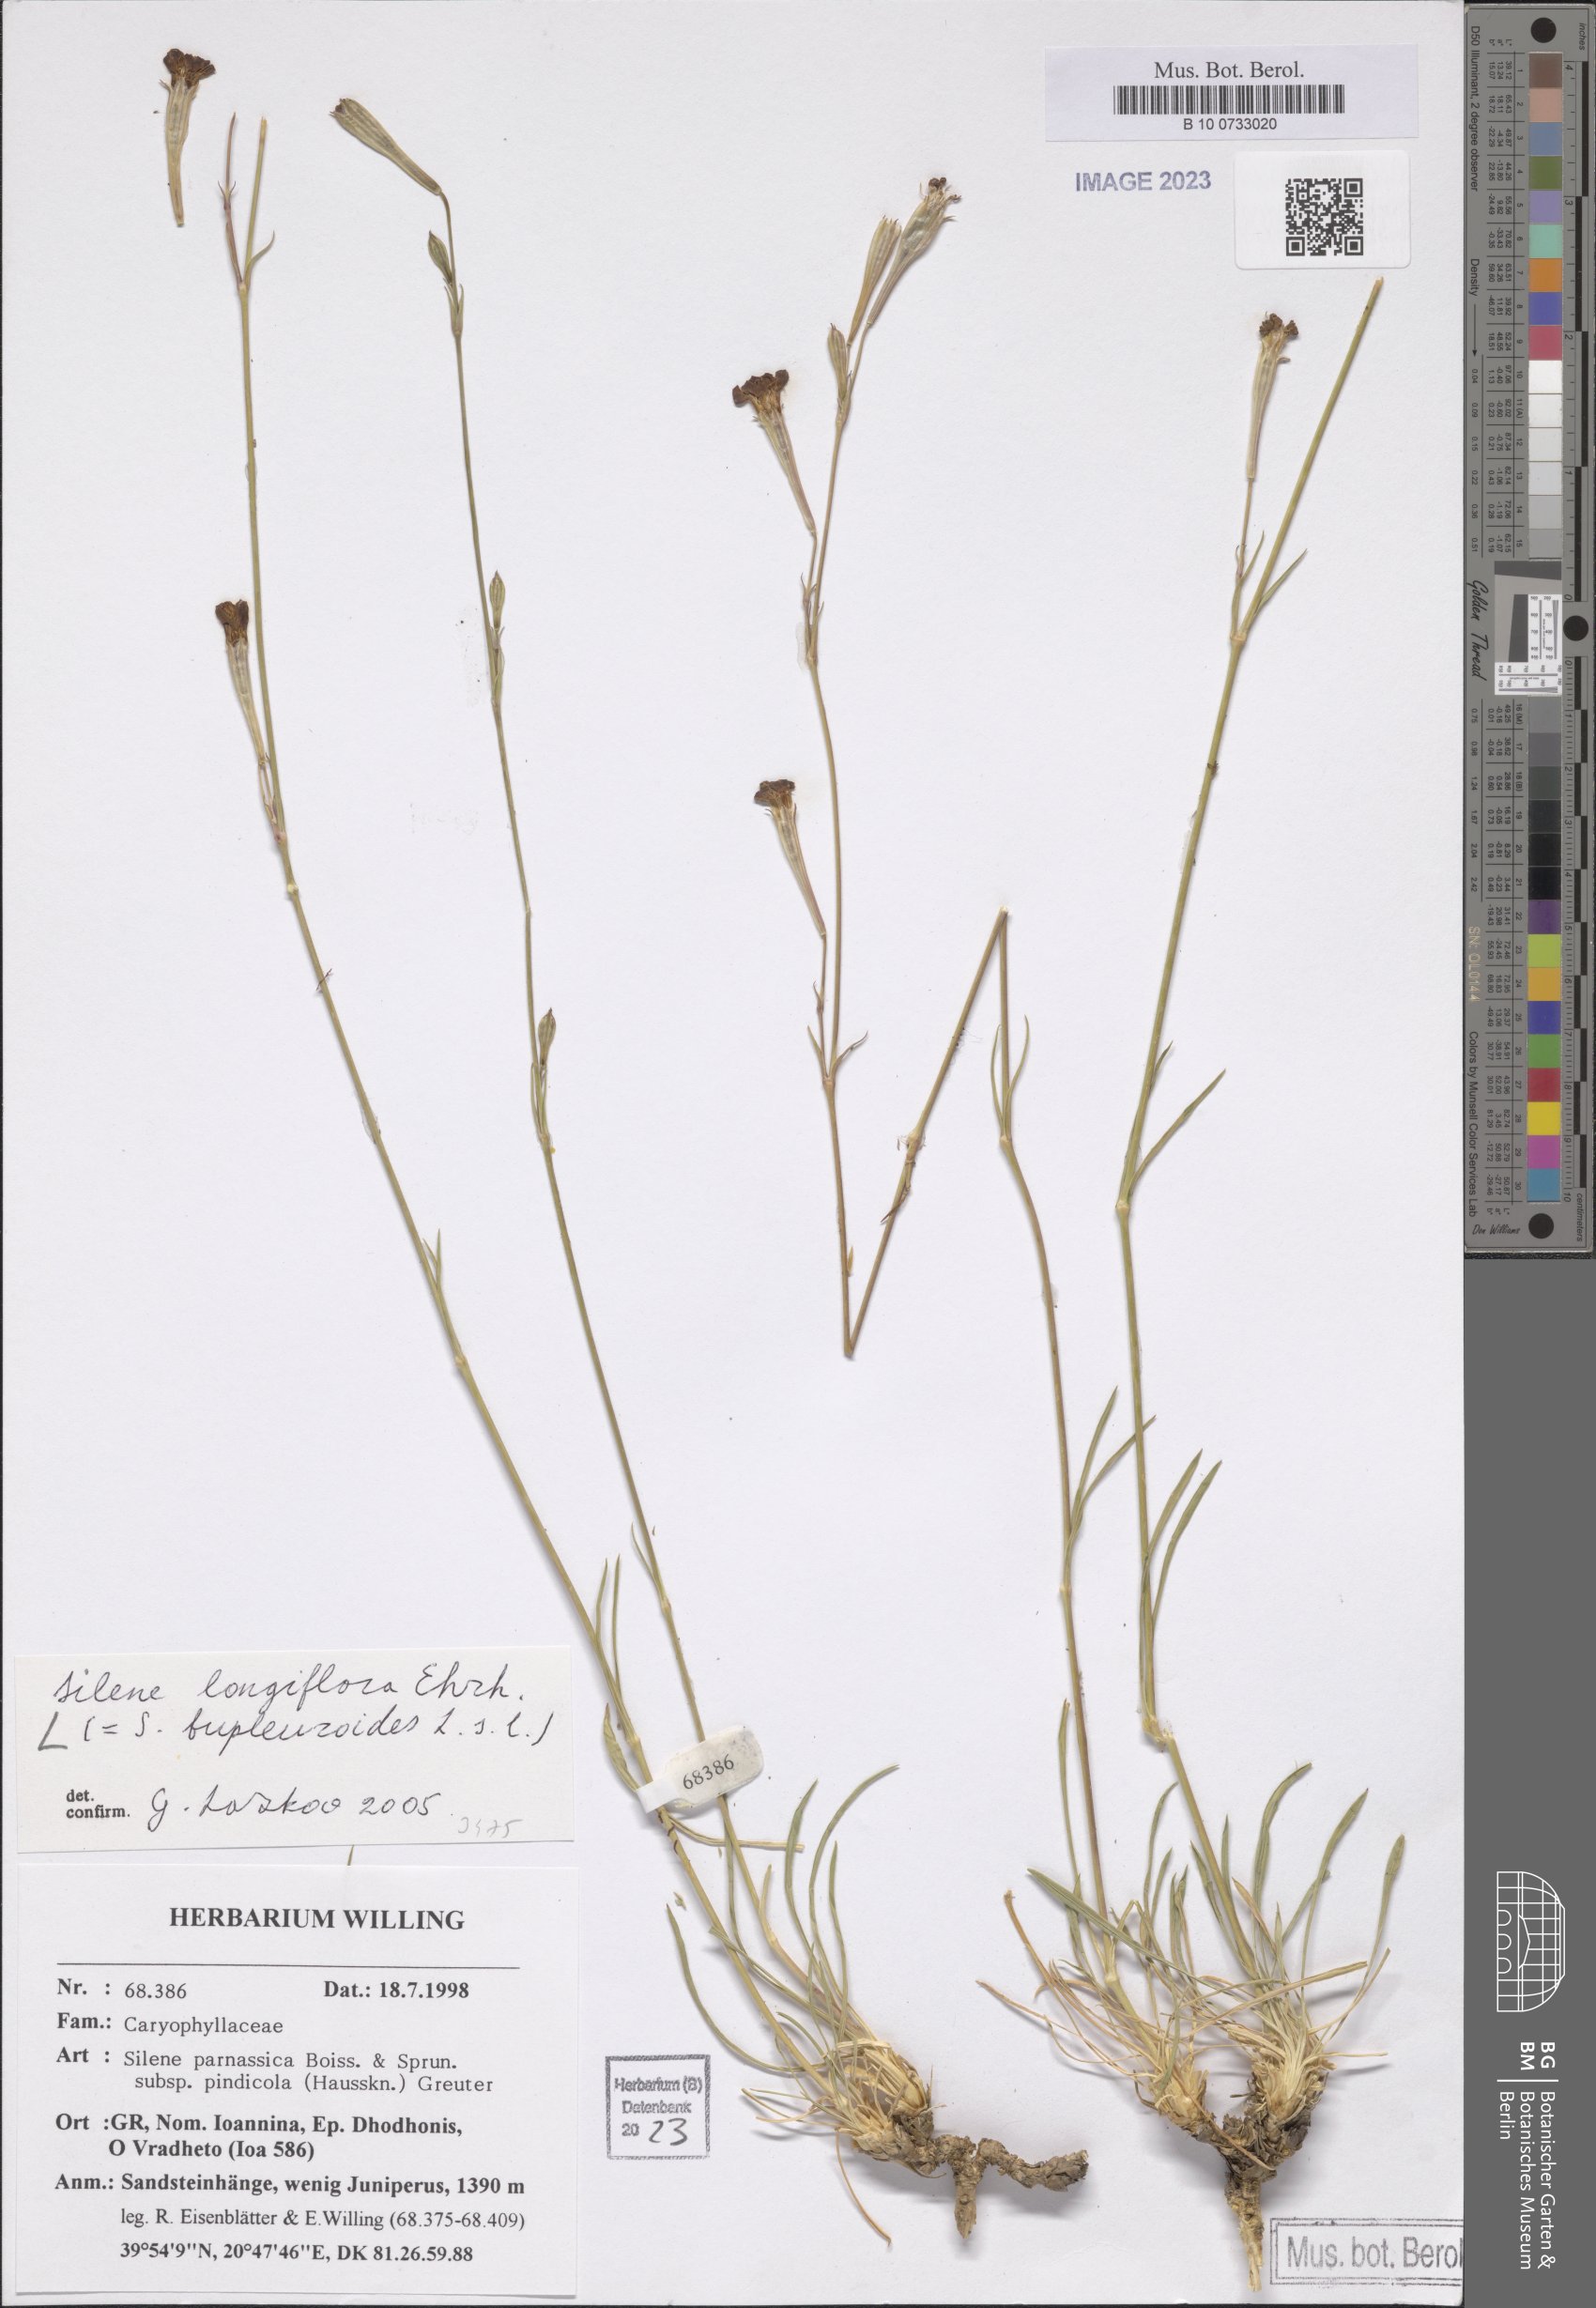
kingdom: Plantae
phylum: Tracheophyta
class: Magnoliopsida
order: Caryophyllales
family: Caryophyllaceae
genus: Silene
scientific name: Silene bupleuroides
